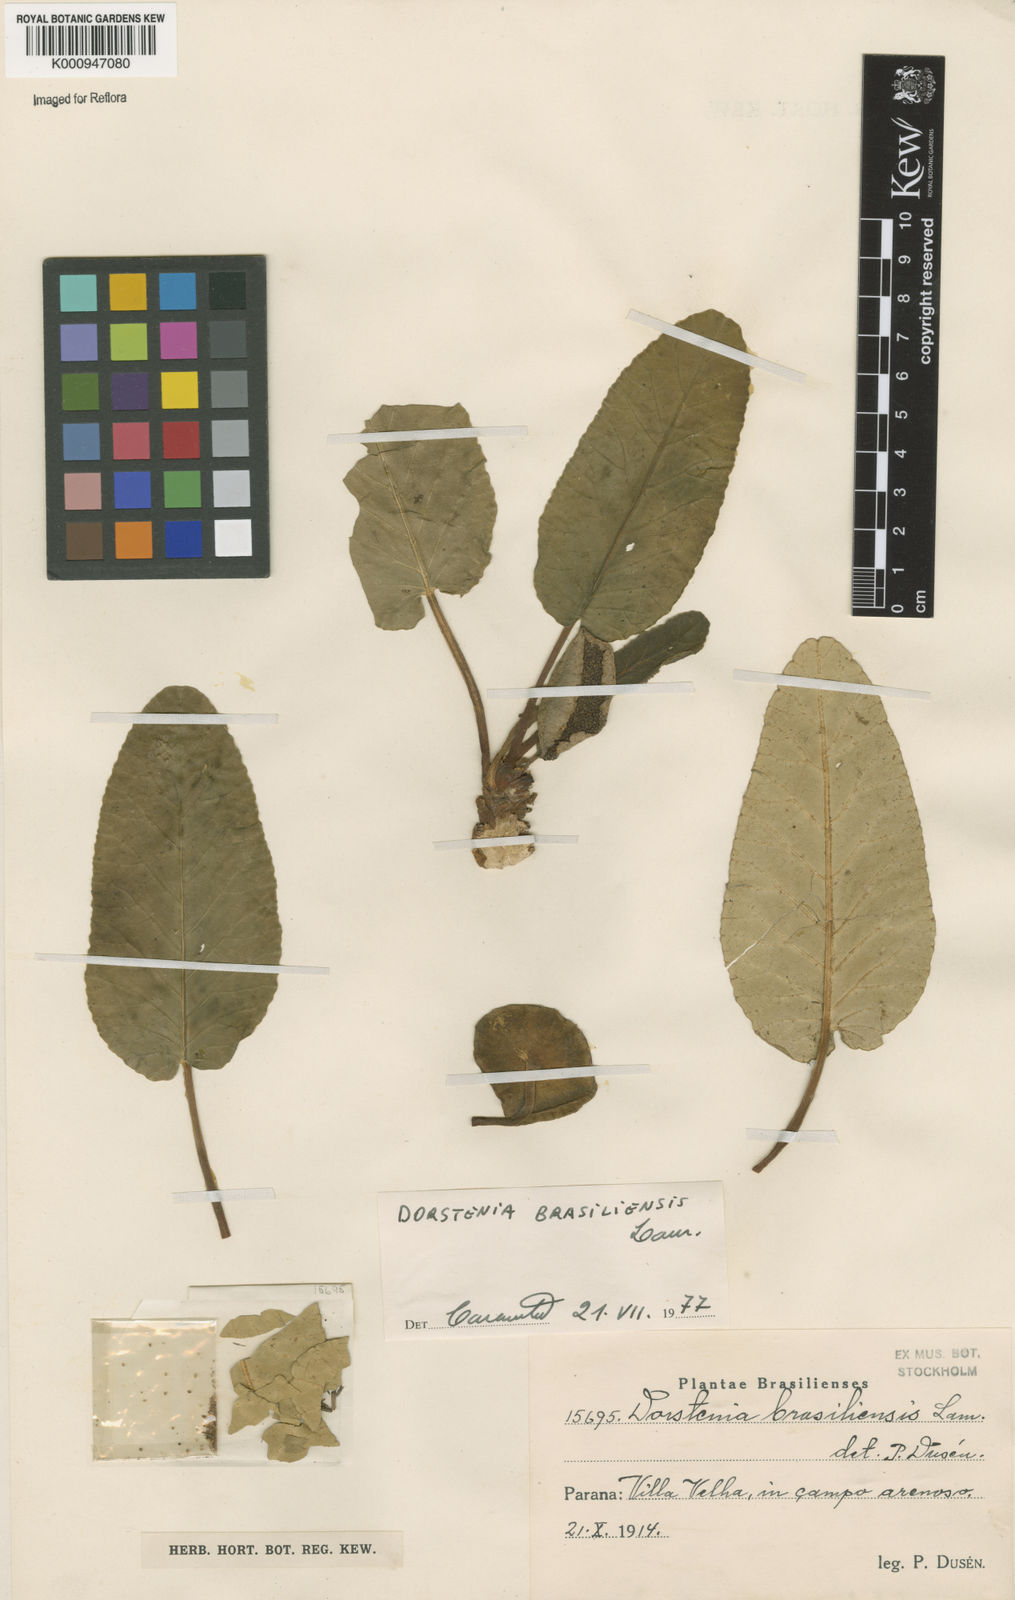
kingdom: Plantae
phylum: Tracheophyta
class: Magnoliopsida
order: Rosales
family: Moraceae
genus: Dorstenia
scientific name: Dorstenia brasiliensis
